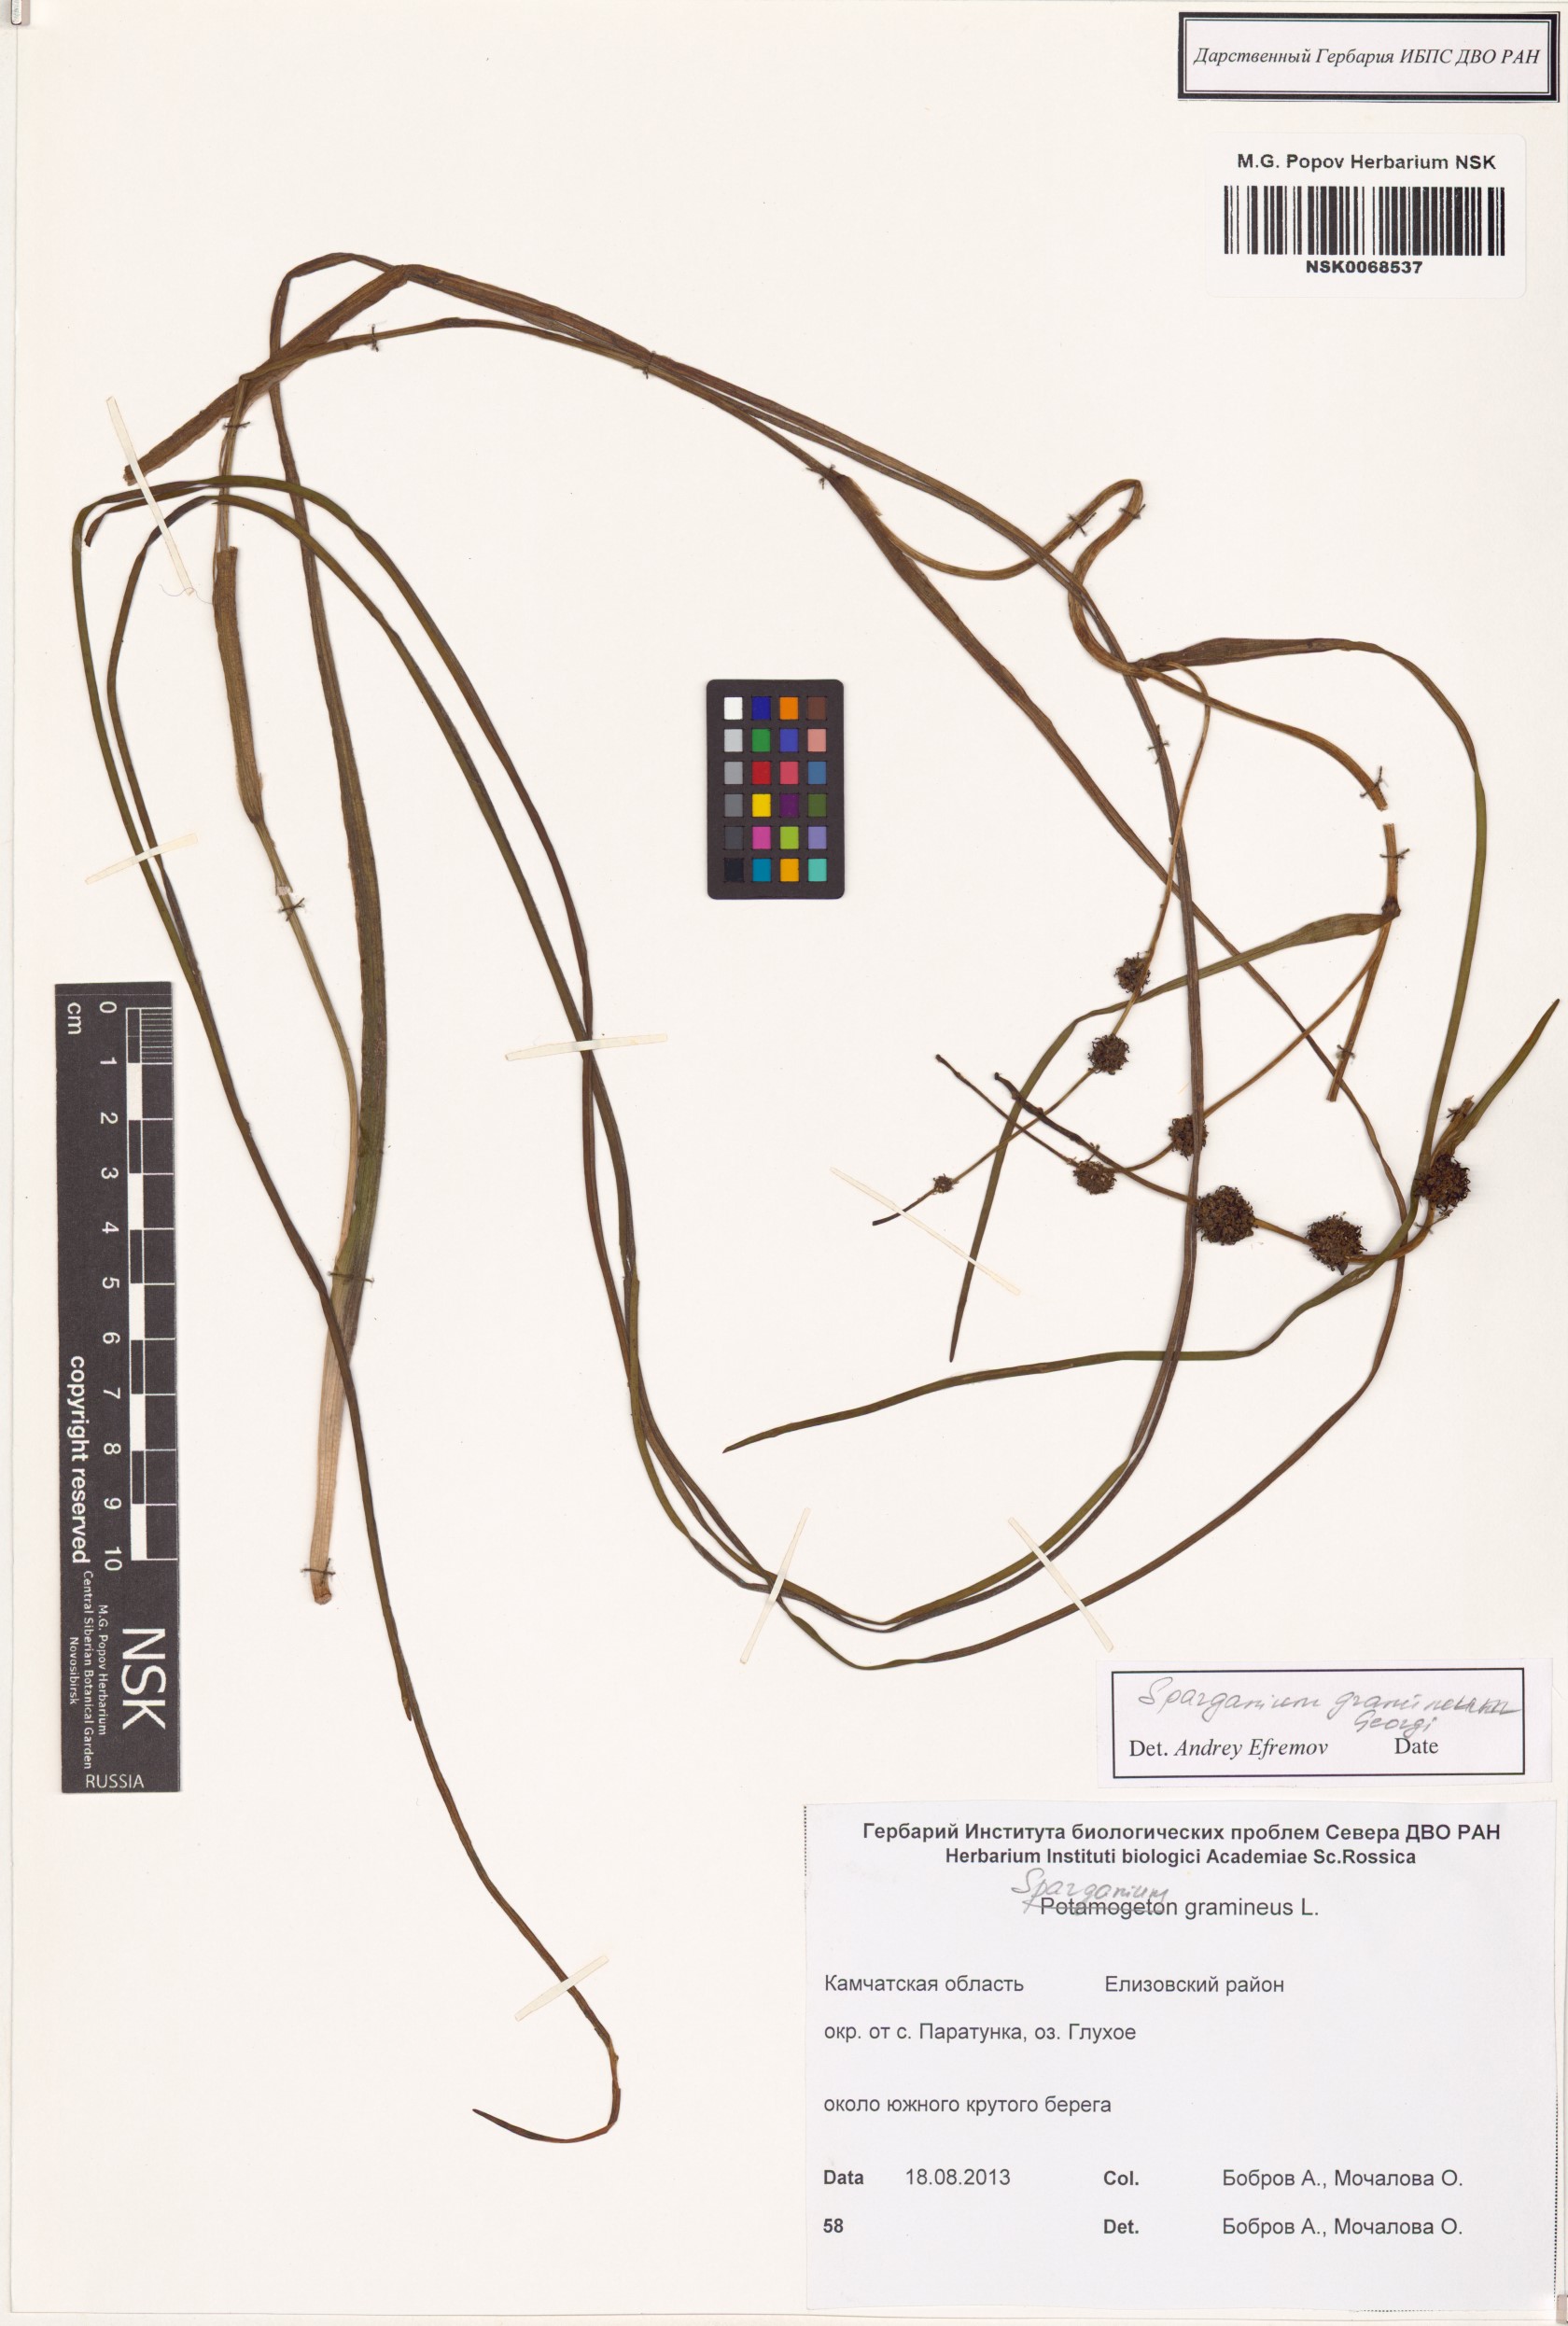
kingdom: Plantae
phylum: Tracheophyta
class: Liliopsida
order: Poales
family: Typhaceae
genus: Sparganium
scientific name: Sparganium gramineum
